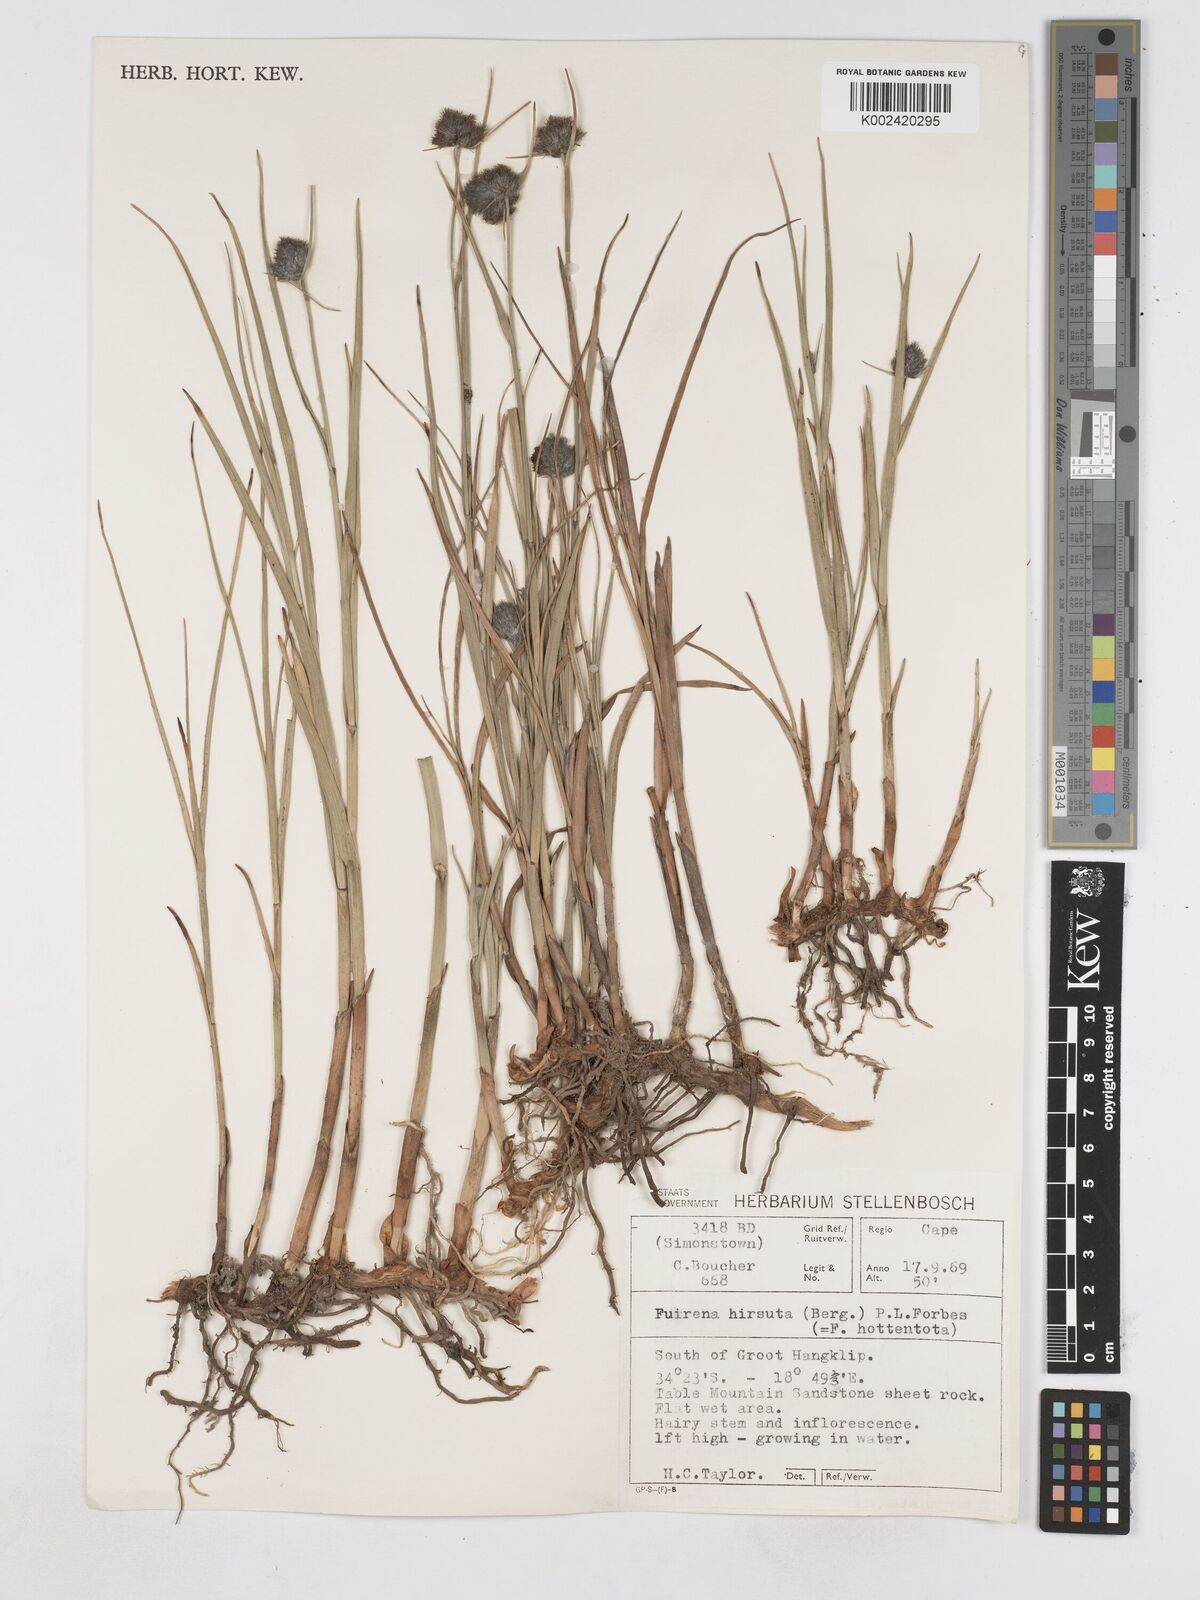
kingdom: Plantae
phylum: Tracheophyta
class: Liliopsida
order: Poales
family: Cyperaceae
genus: Fuirena
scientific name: Fuirena hirsuta
